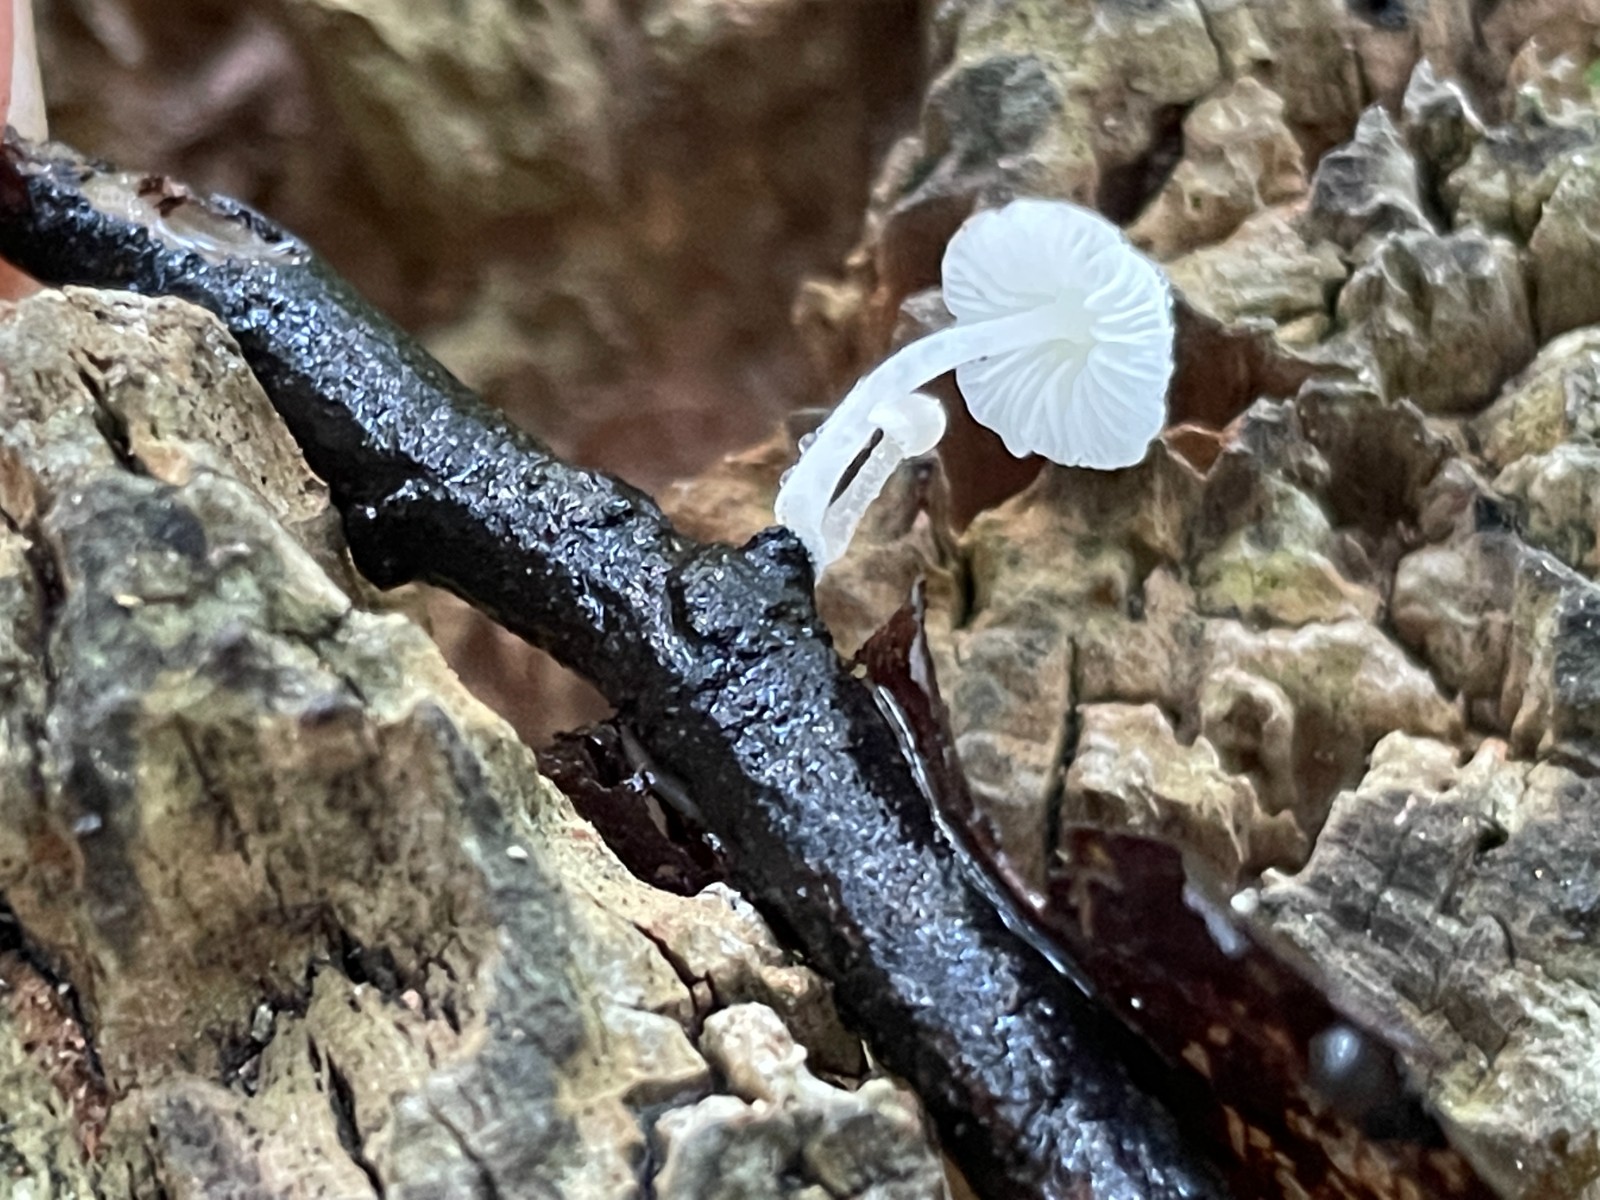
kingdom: Fungi
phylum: Basidiomycota
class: Agaricomycetes
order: Agaricales
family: Tricholomataceae
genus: Delicatula
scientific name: Delicatula integrella
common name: slørhuesvamp
